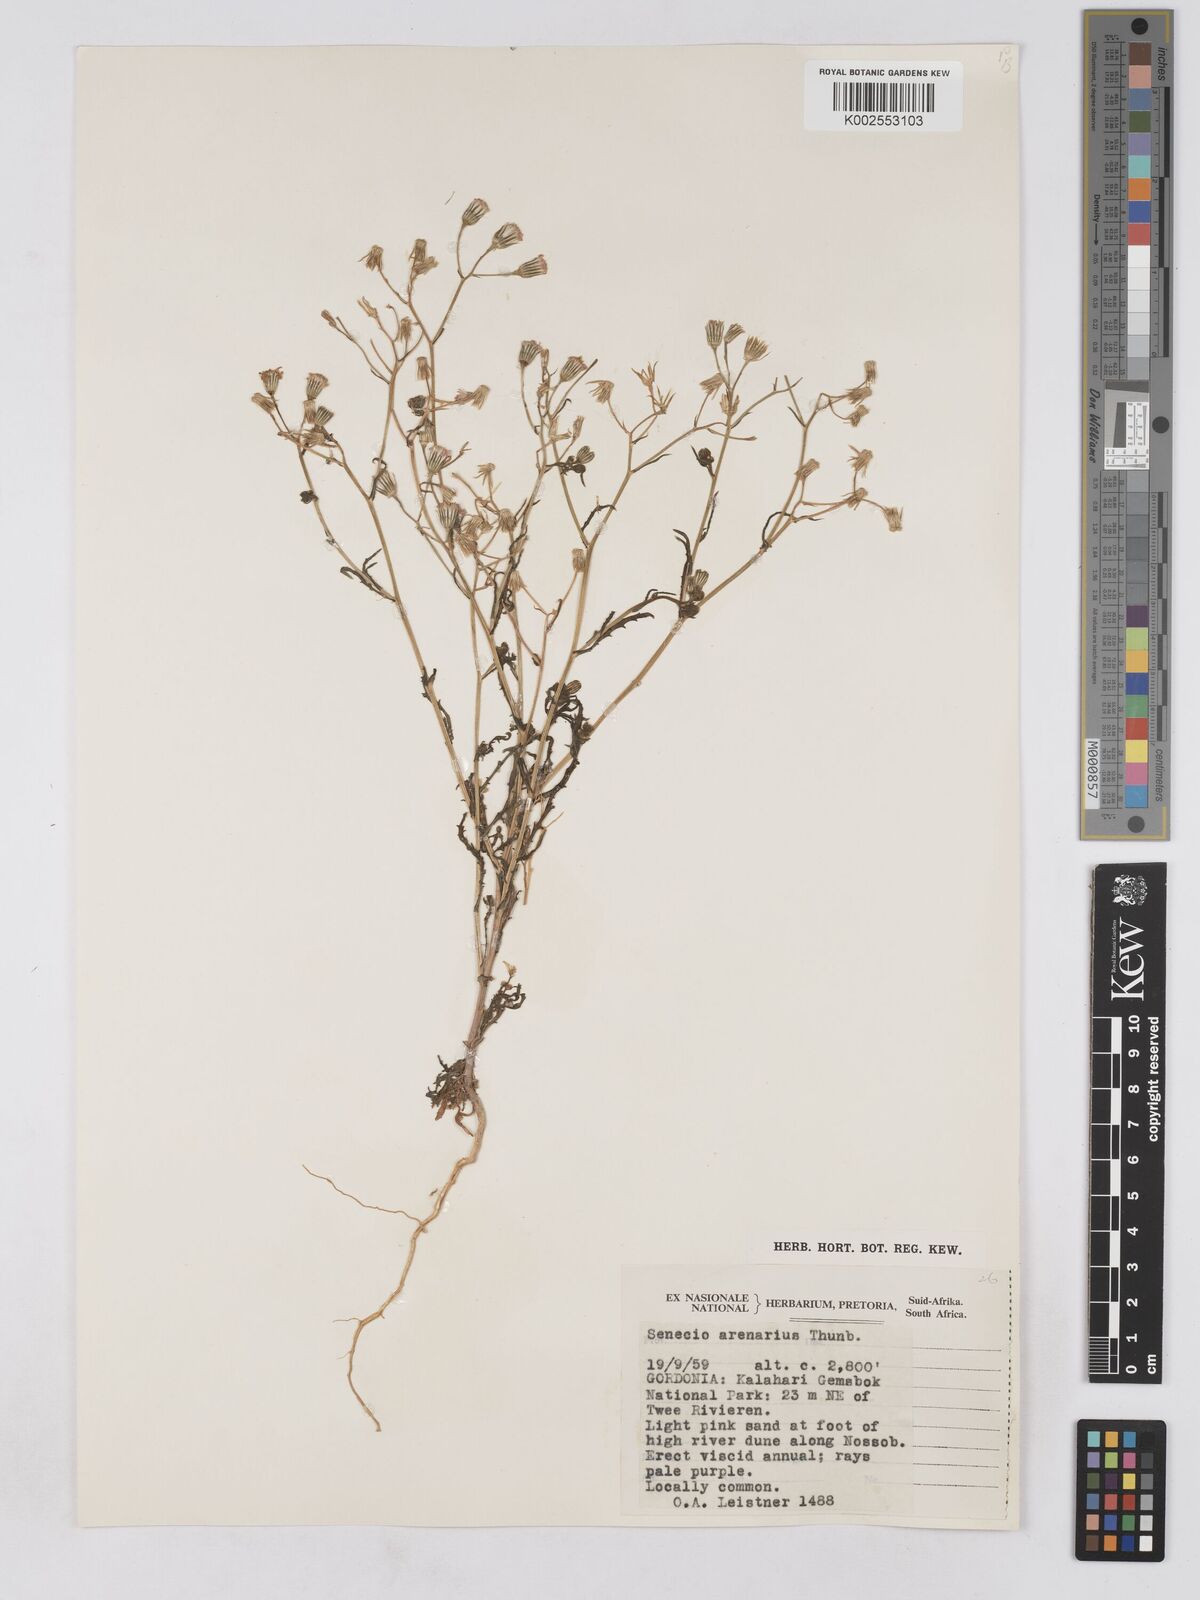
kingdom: Plantae
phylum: Tracheophyta
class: Magnoliopsida
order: Asterales
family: Asteraceae
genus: Senecio
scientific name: Senecio arenarius
